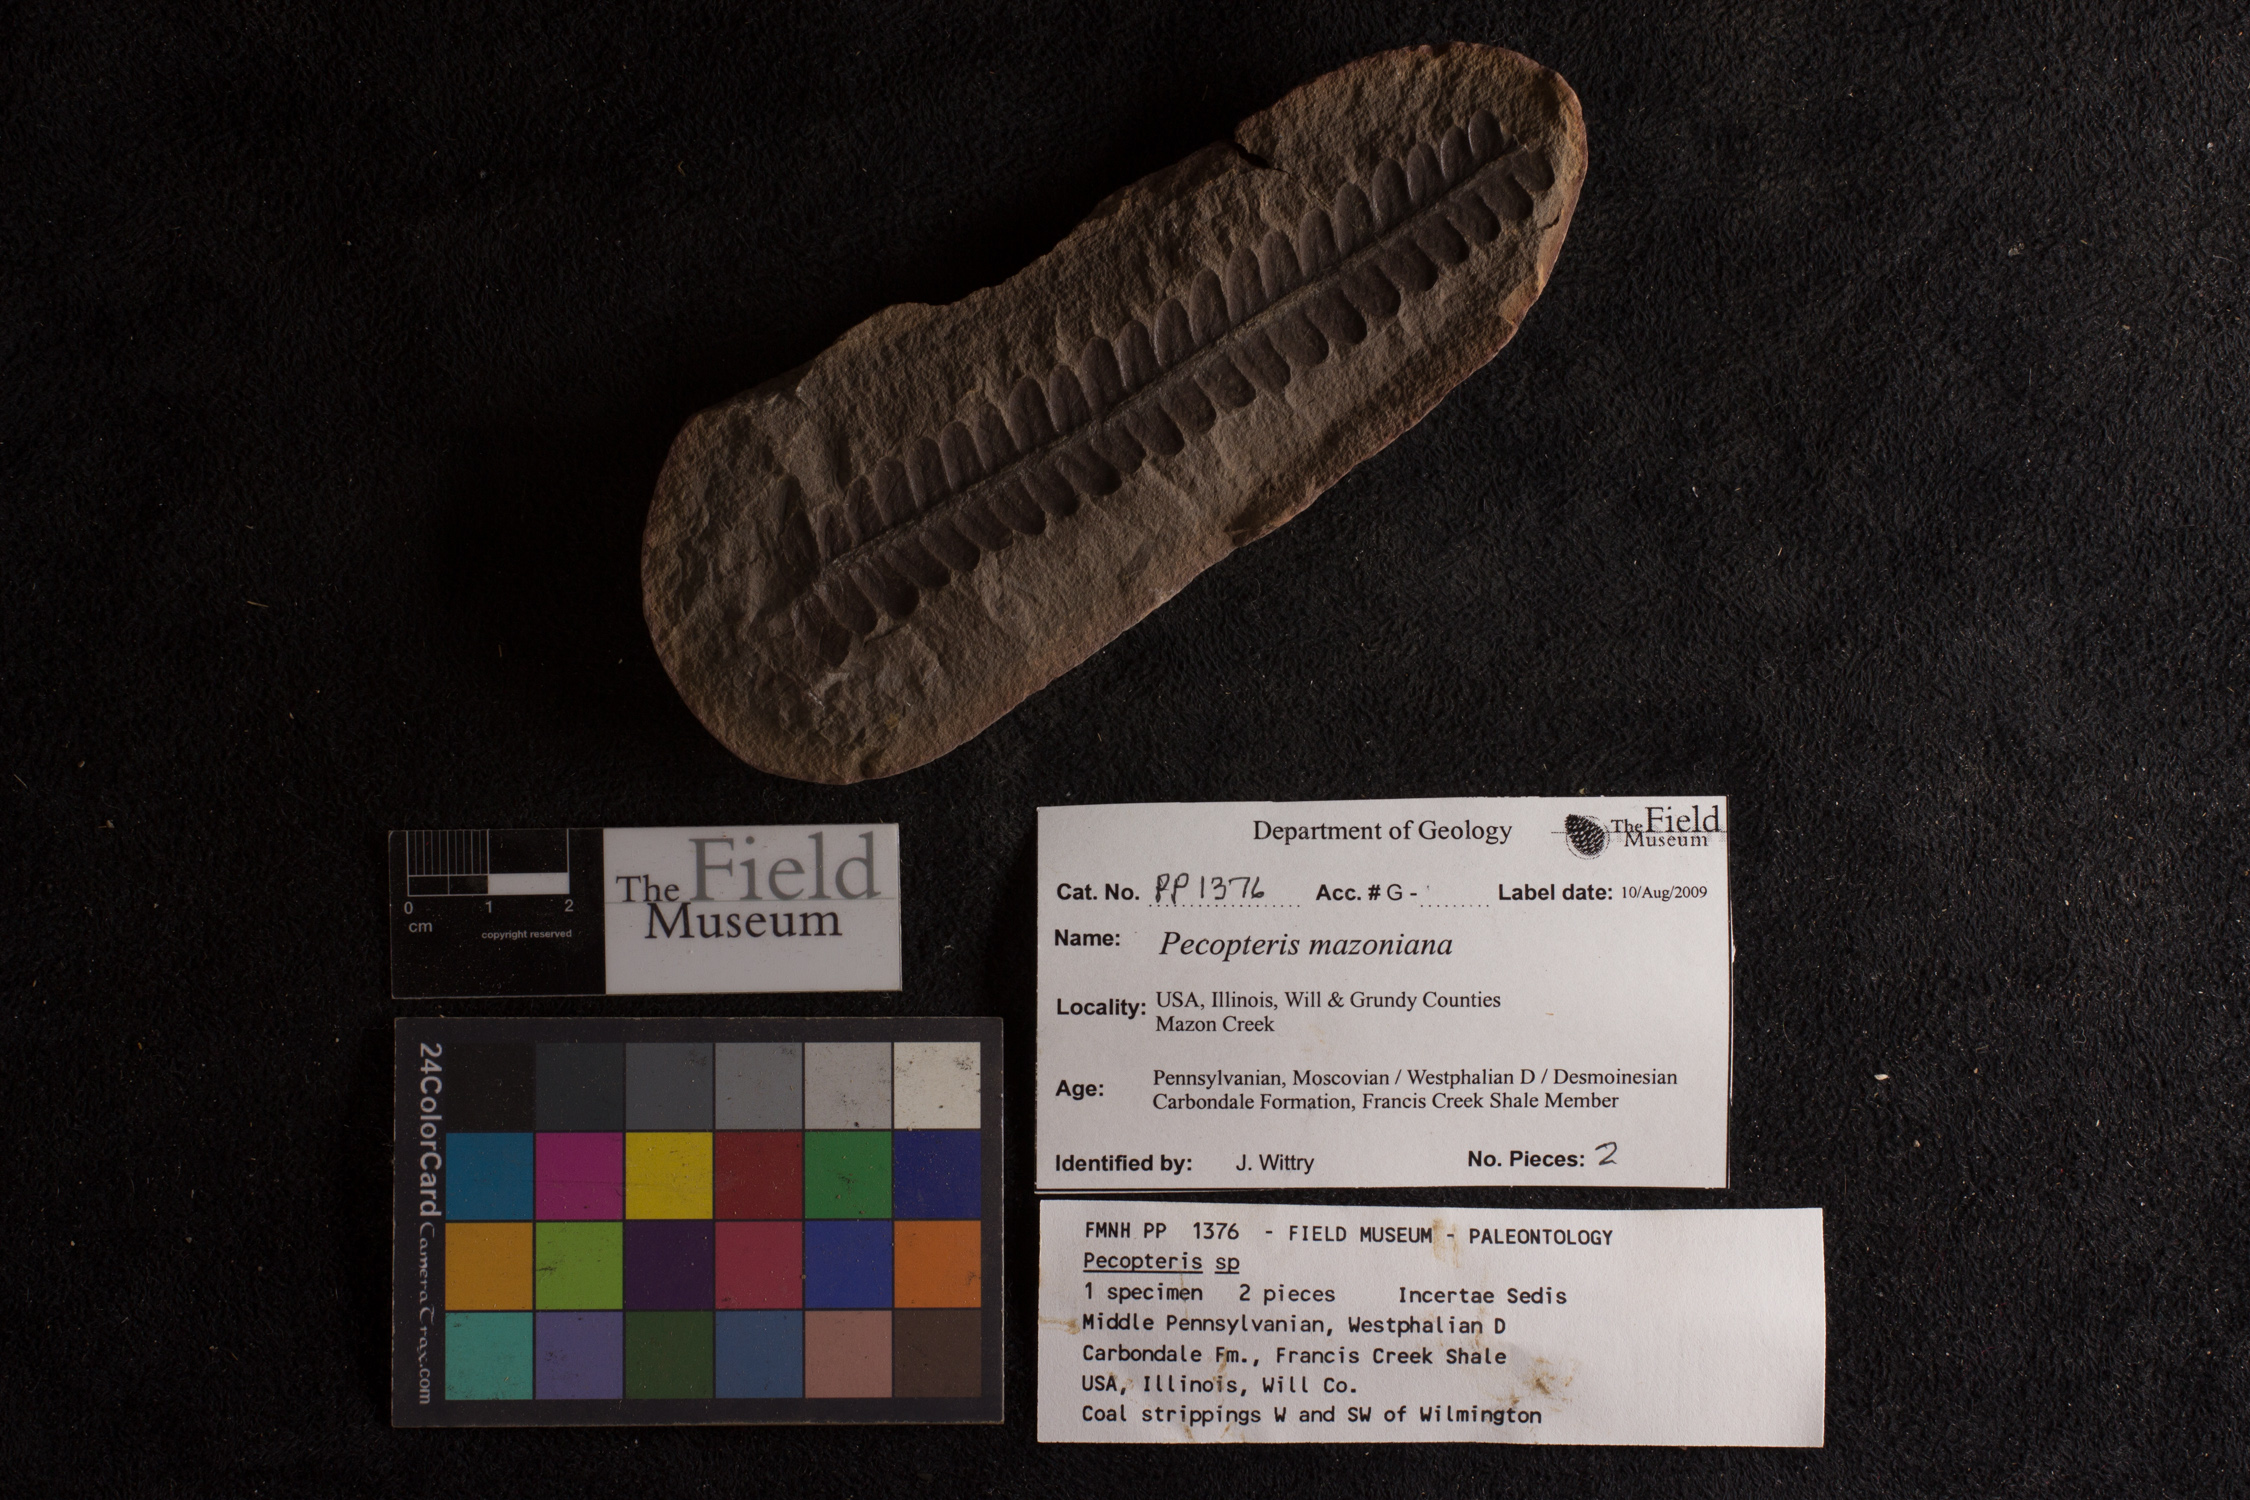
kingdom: Plantae
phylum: Tracheophyta
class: Polypodiopsida
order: Marattiales
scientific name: Marattiales
